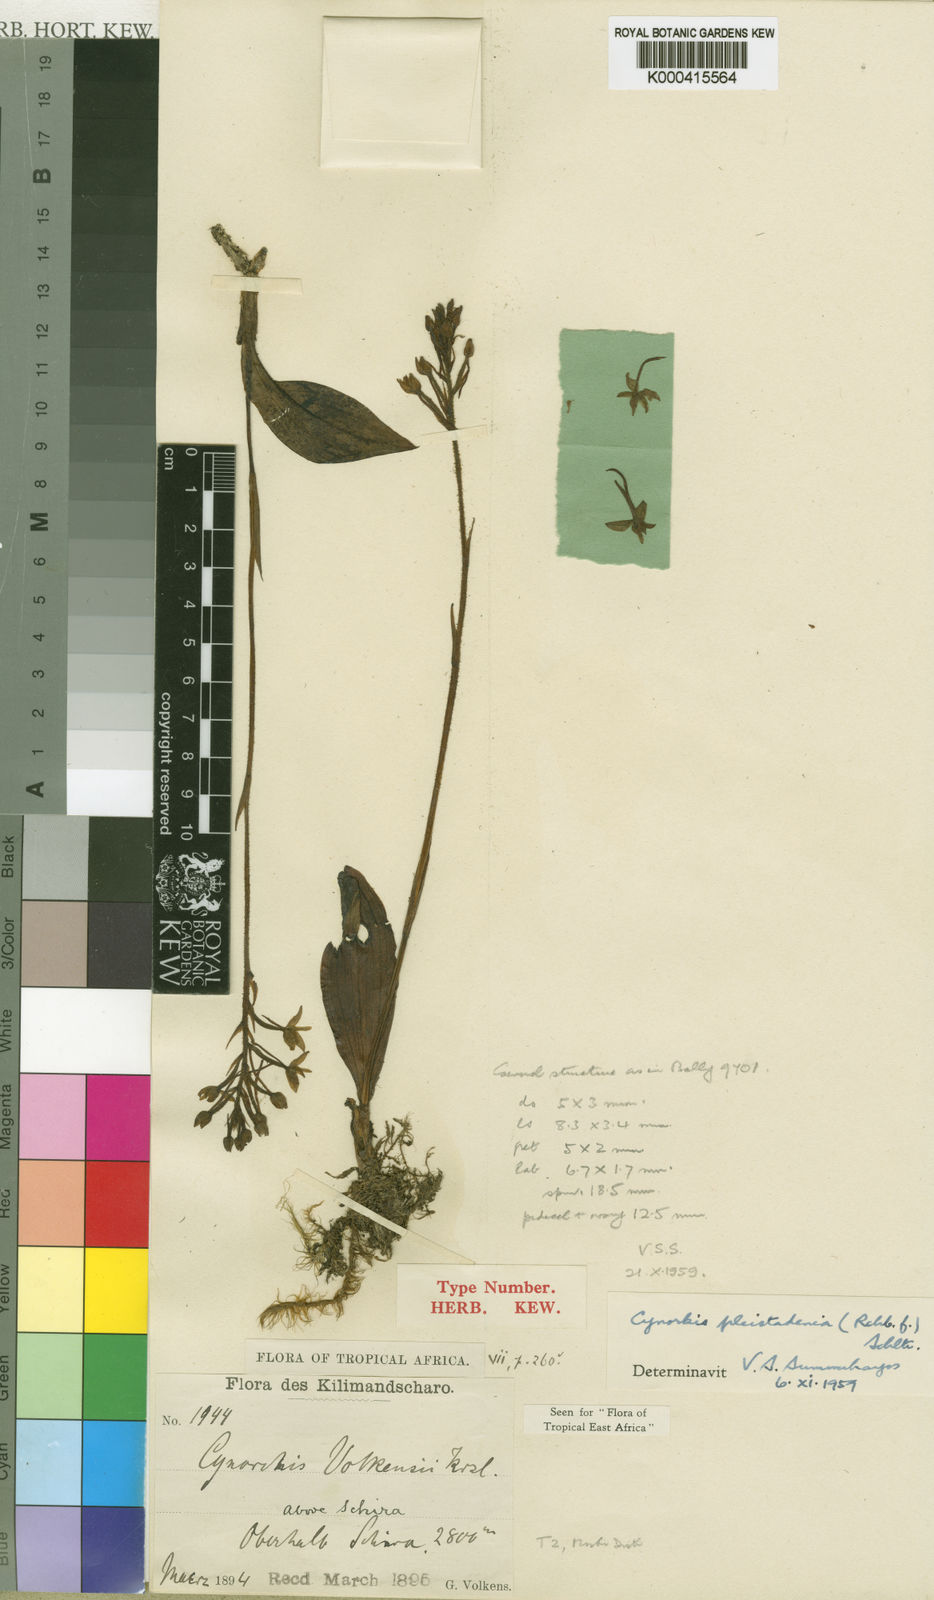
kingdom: Plantae
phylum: Tracheophyta
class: Liliopsida
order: Asparagales
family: Orchidaceae
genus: Cynorkis
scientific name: Cynorkis pleistadenia
